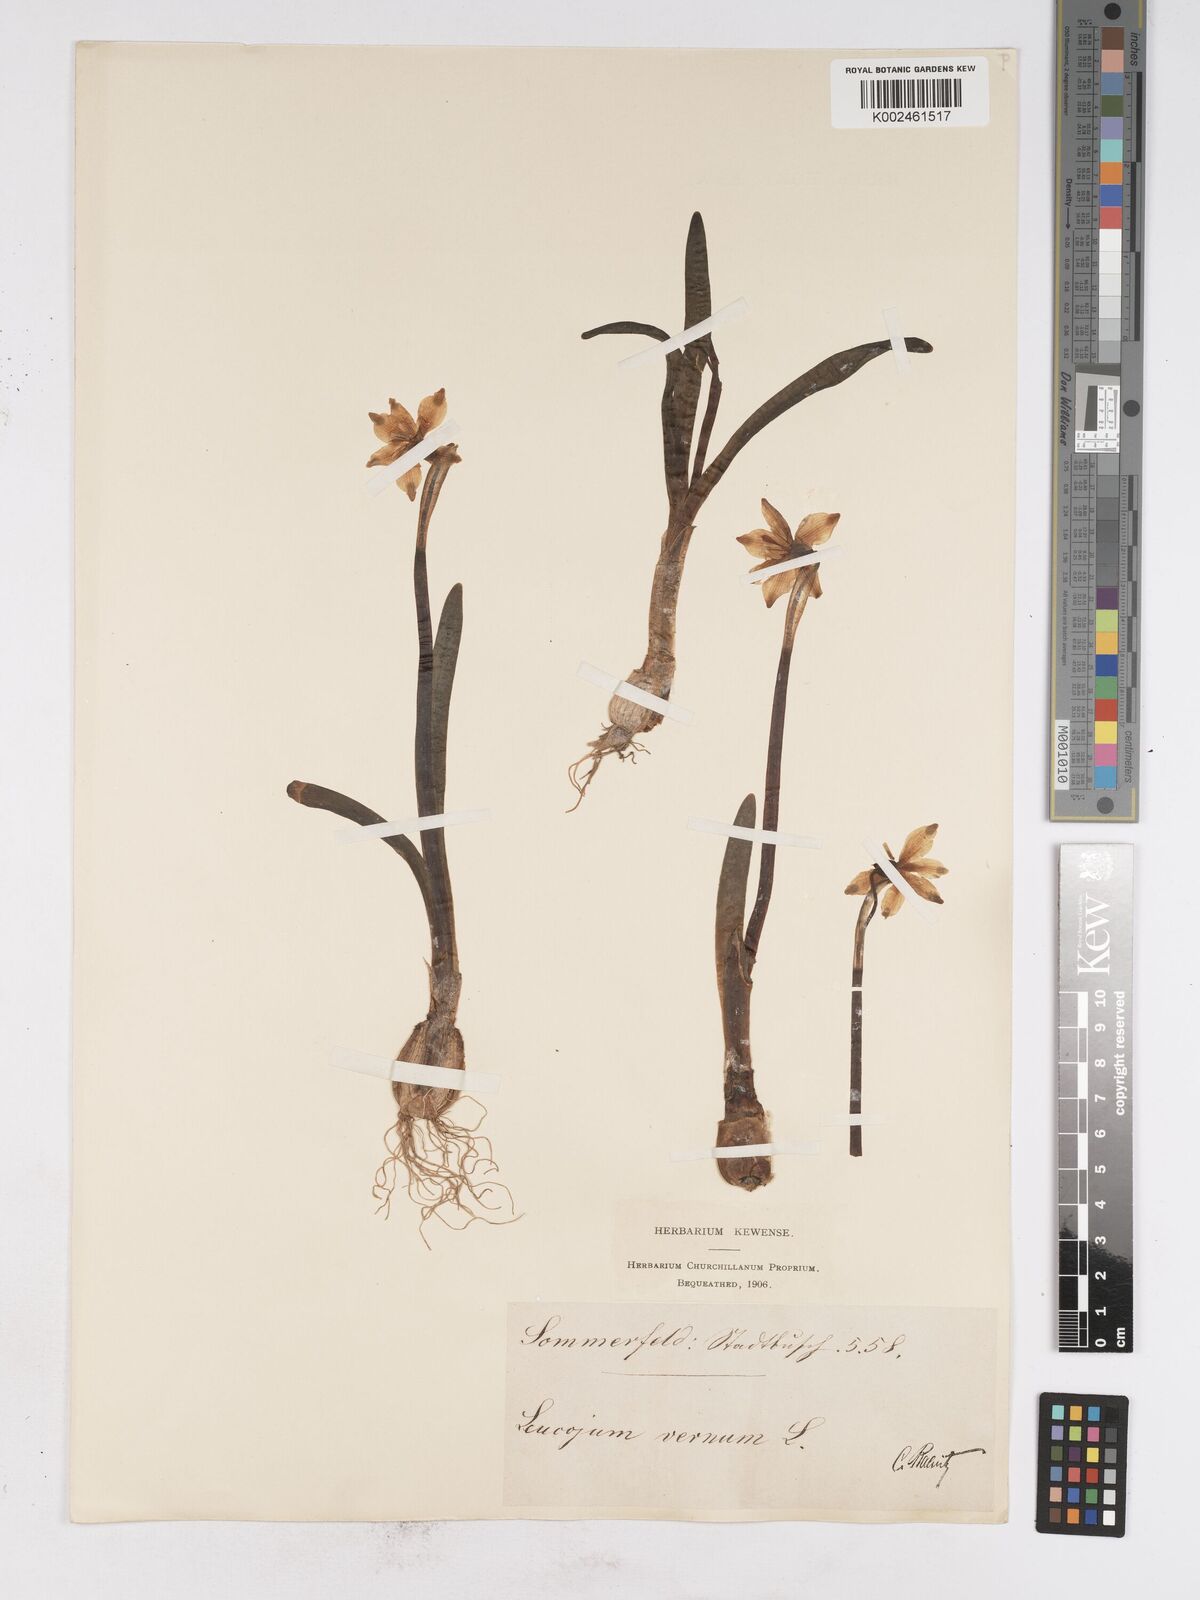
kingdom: Plantae
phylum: Tracheophyta
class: Liliopsida
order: Asparagales
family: Amaryllidaceae
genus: Leucojum
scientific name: Leucojum vernum
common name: Spring snowflake
